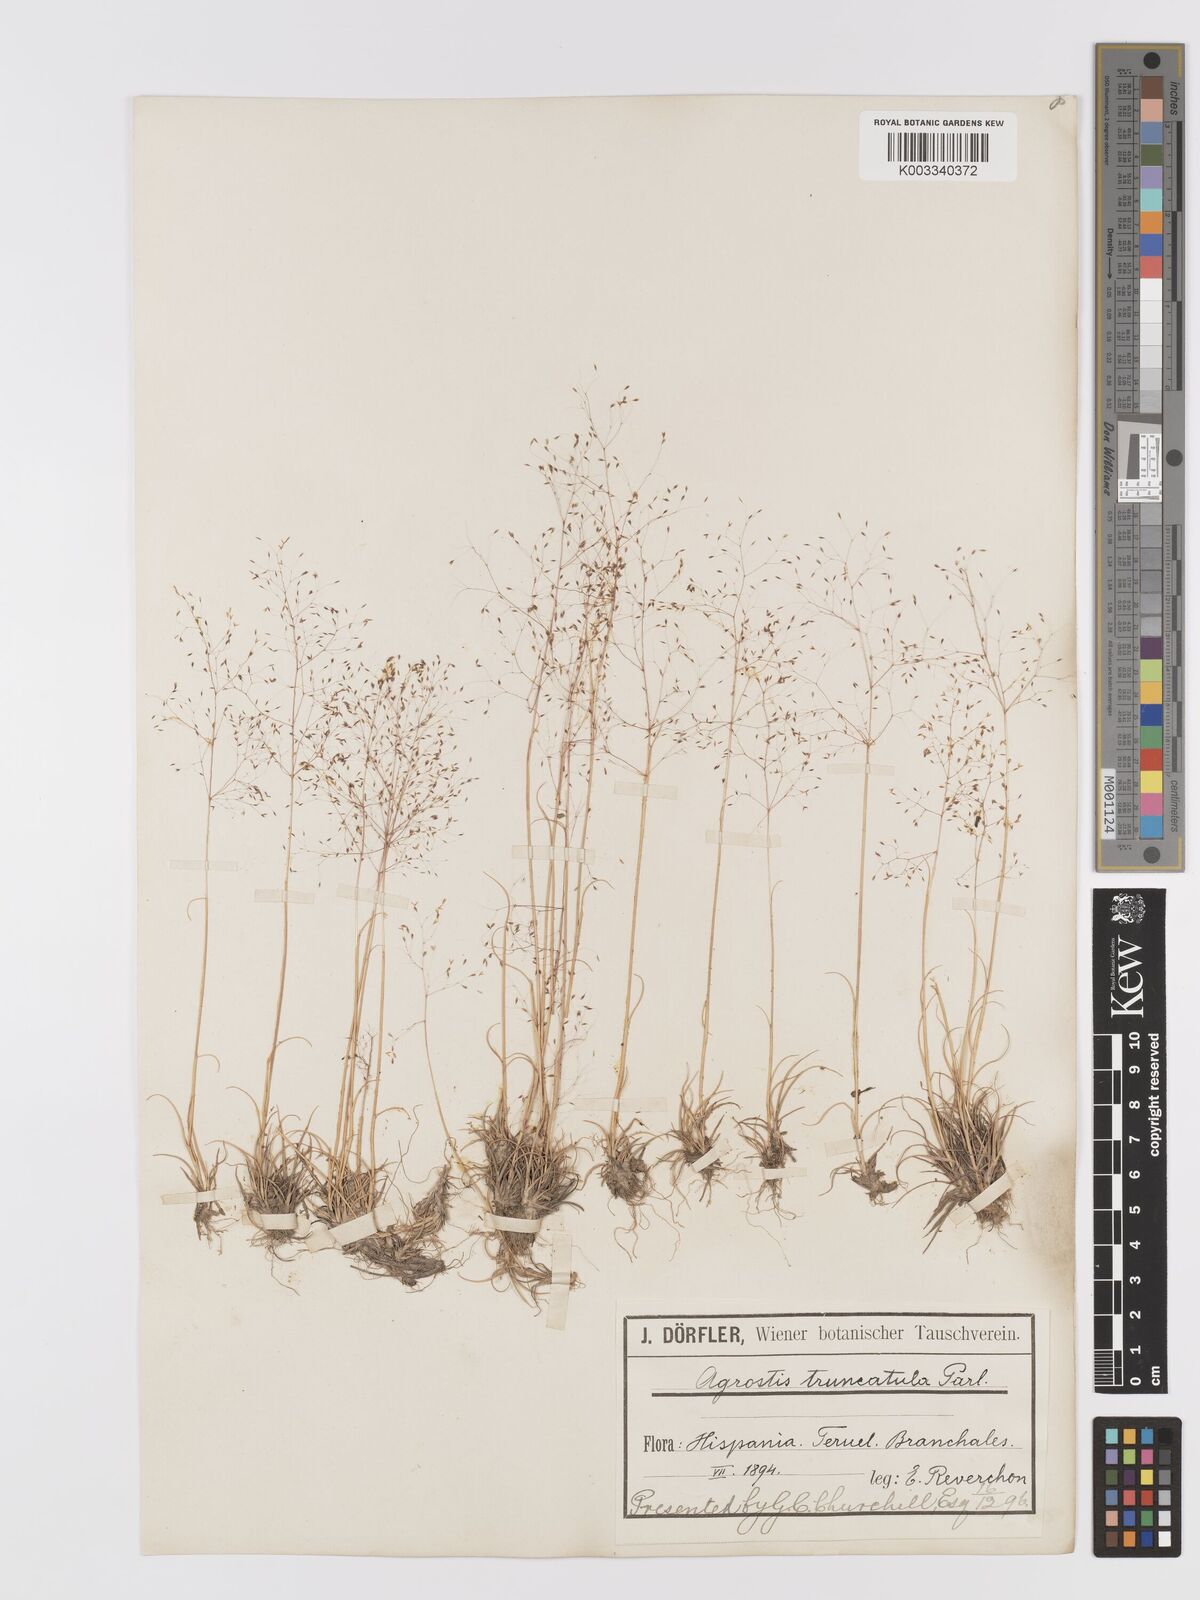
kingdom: Plantae
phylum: Tracheophyta
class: Liliopsida
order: Poales
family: Poaceae
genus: Agrostis
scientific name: Agrostis castellana
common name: Highland bent
